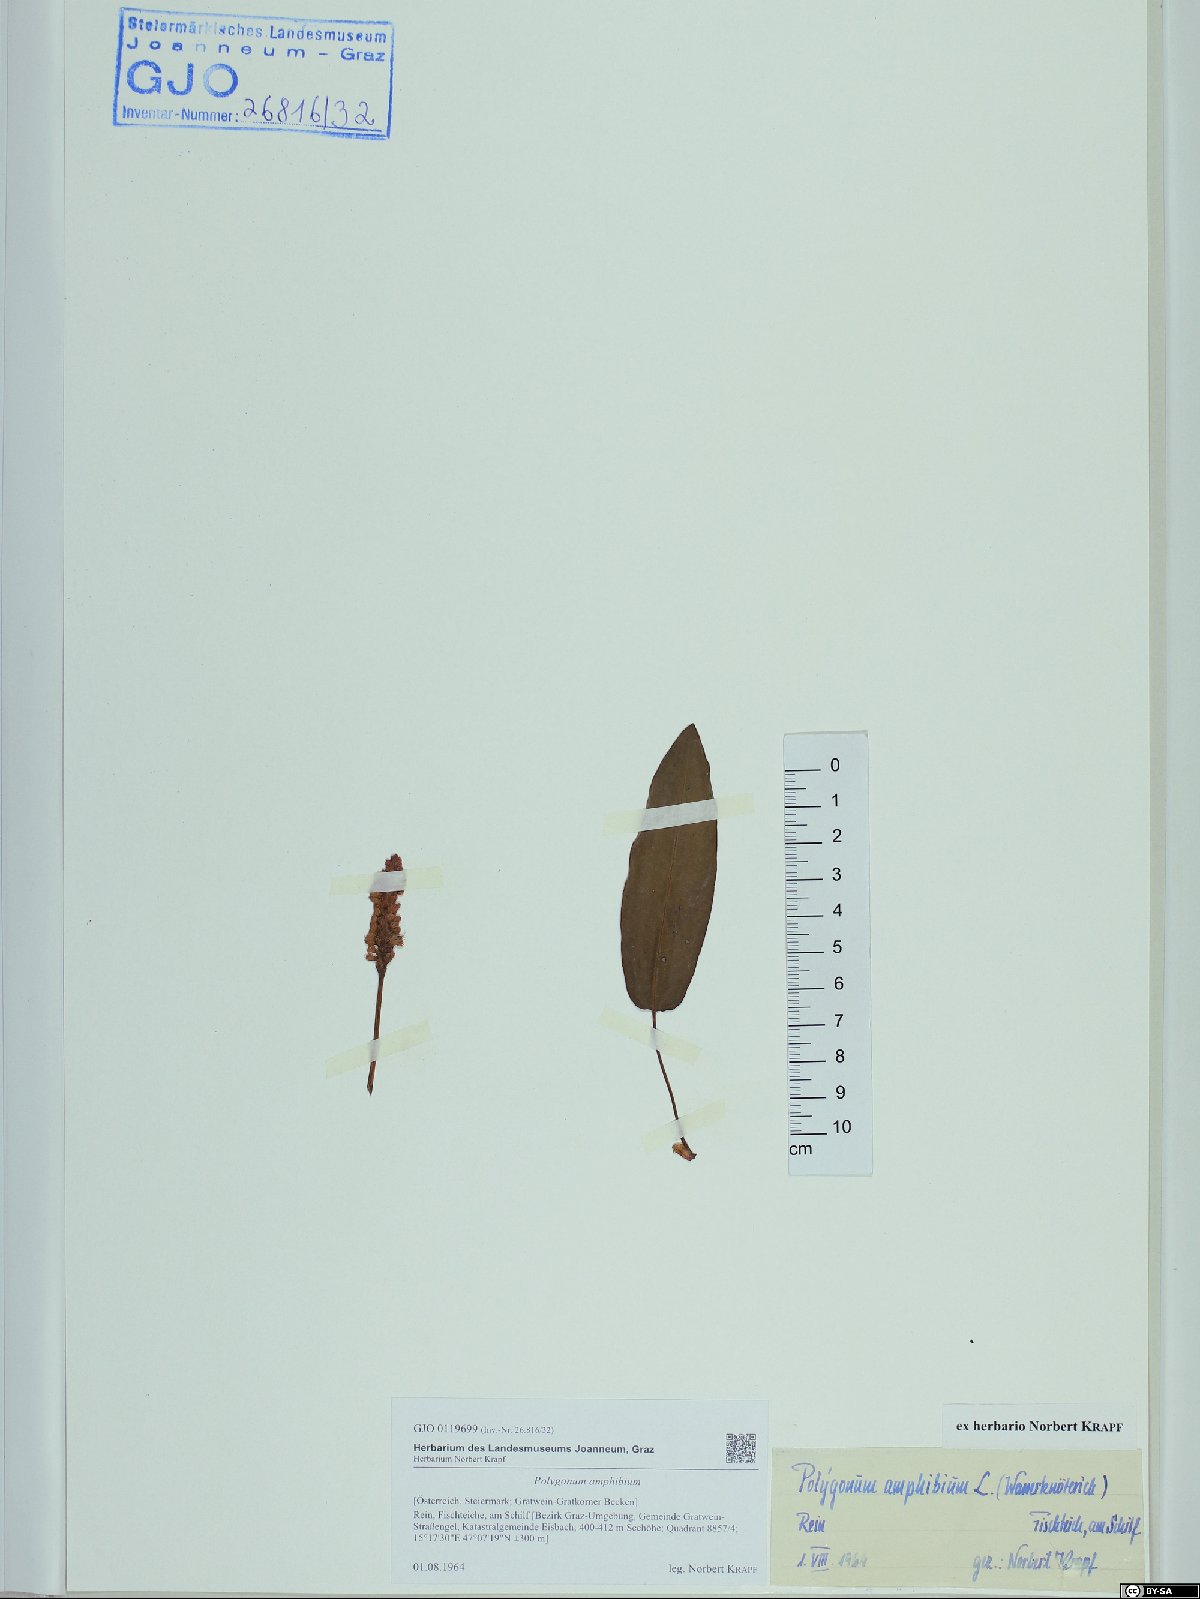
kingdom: Plantae
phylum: Tracheophyta
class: Magnoliopsida
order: Caryophyllales
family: Polygonaceae
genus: Persicaria
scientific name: Persicaria amphibia
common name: Amphibious bistort
